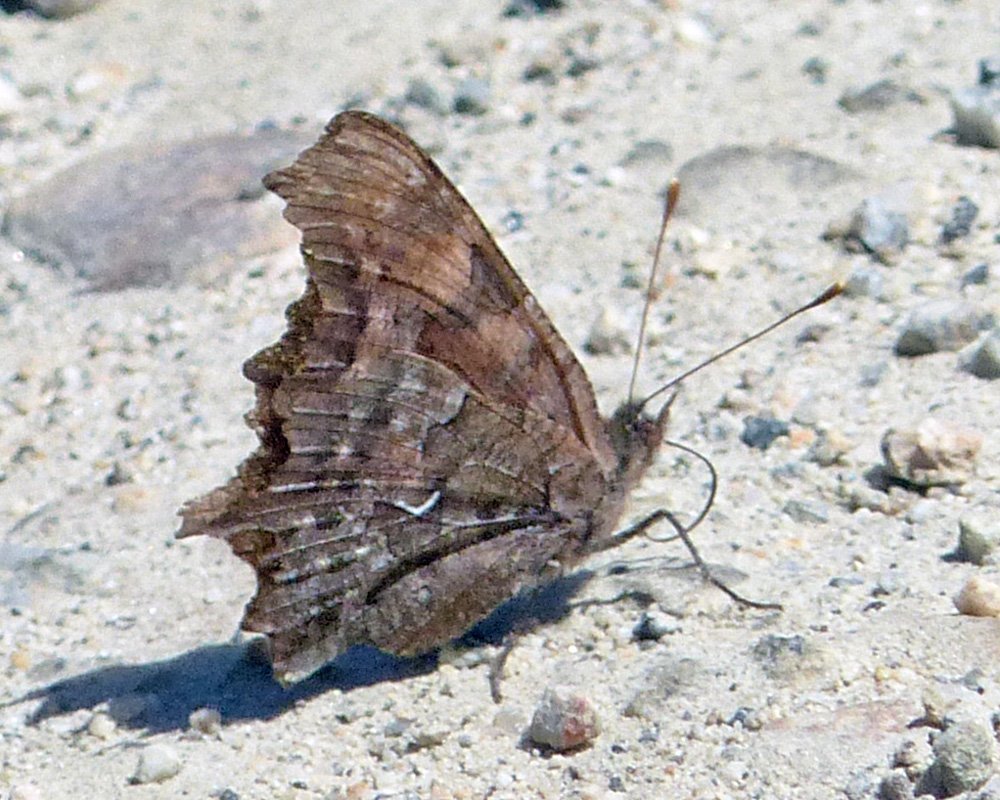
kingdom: Animalia
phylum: Arthropoda
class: Insecta
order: Lepidoptera
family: Nymphalidae
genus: Polygonia
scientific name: Polygonia faunus
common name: Green Comma
